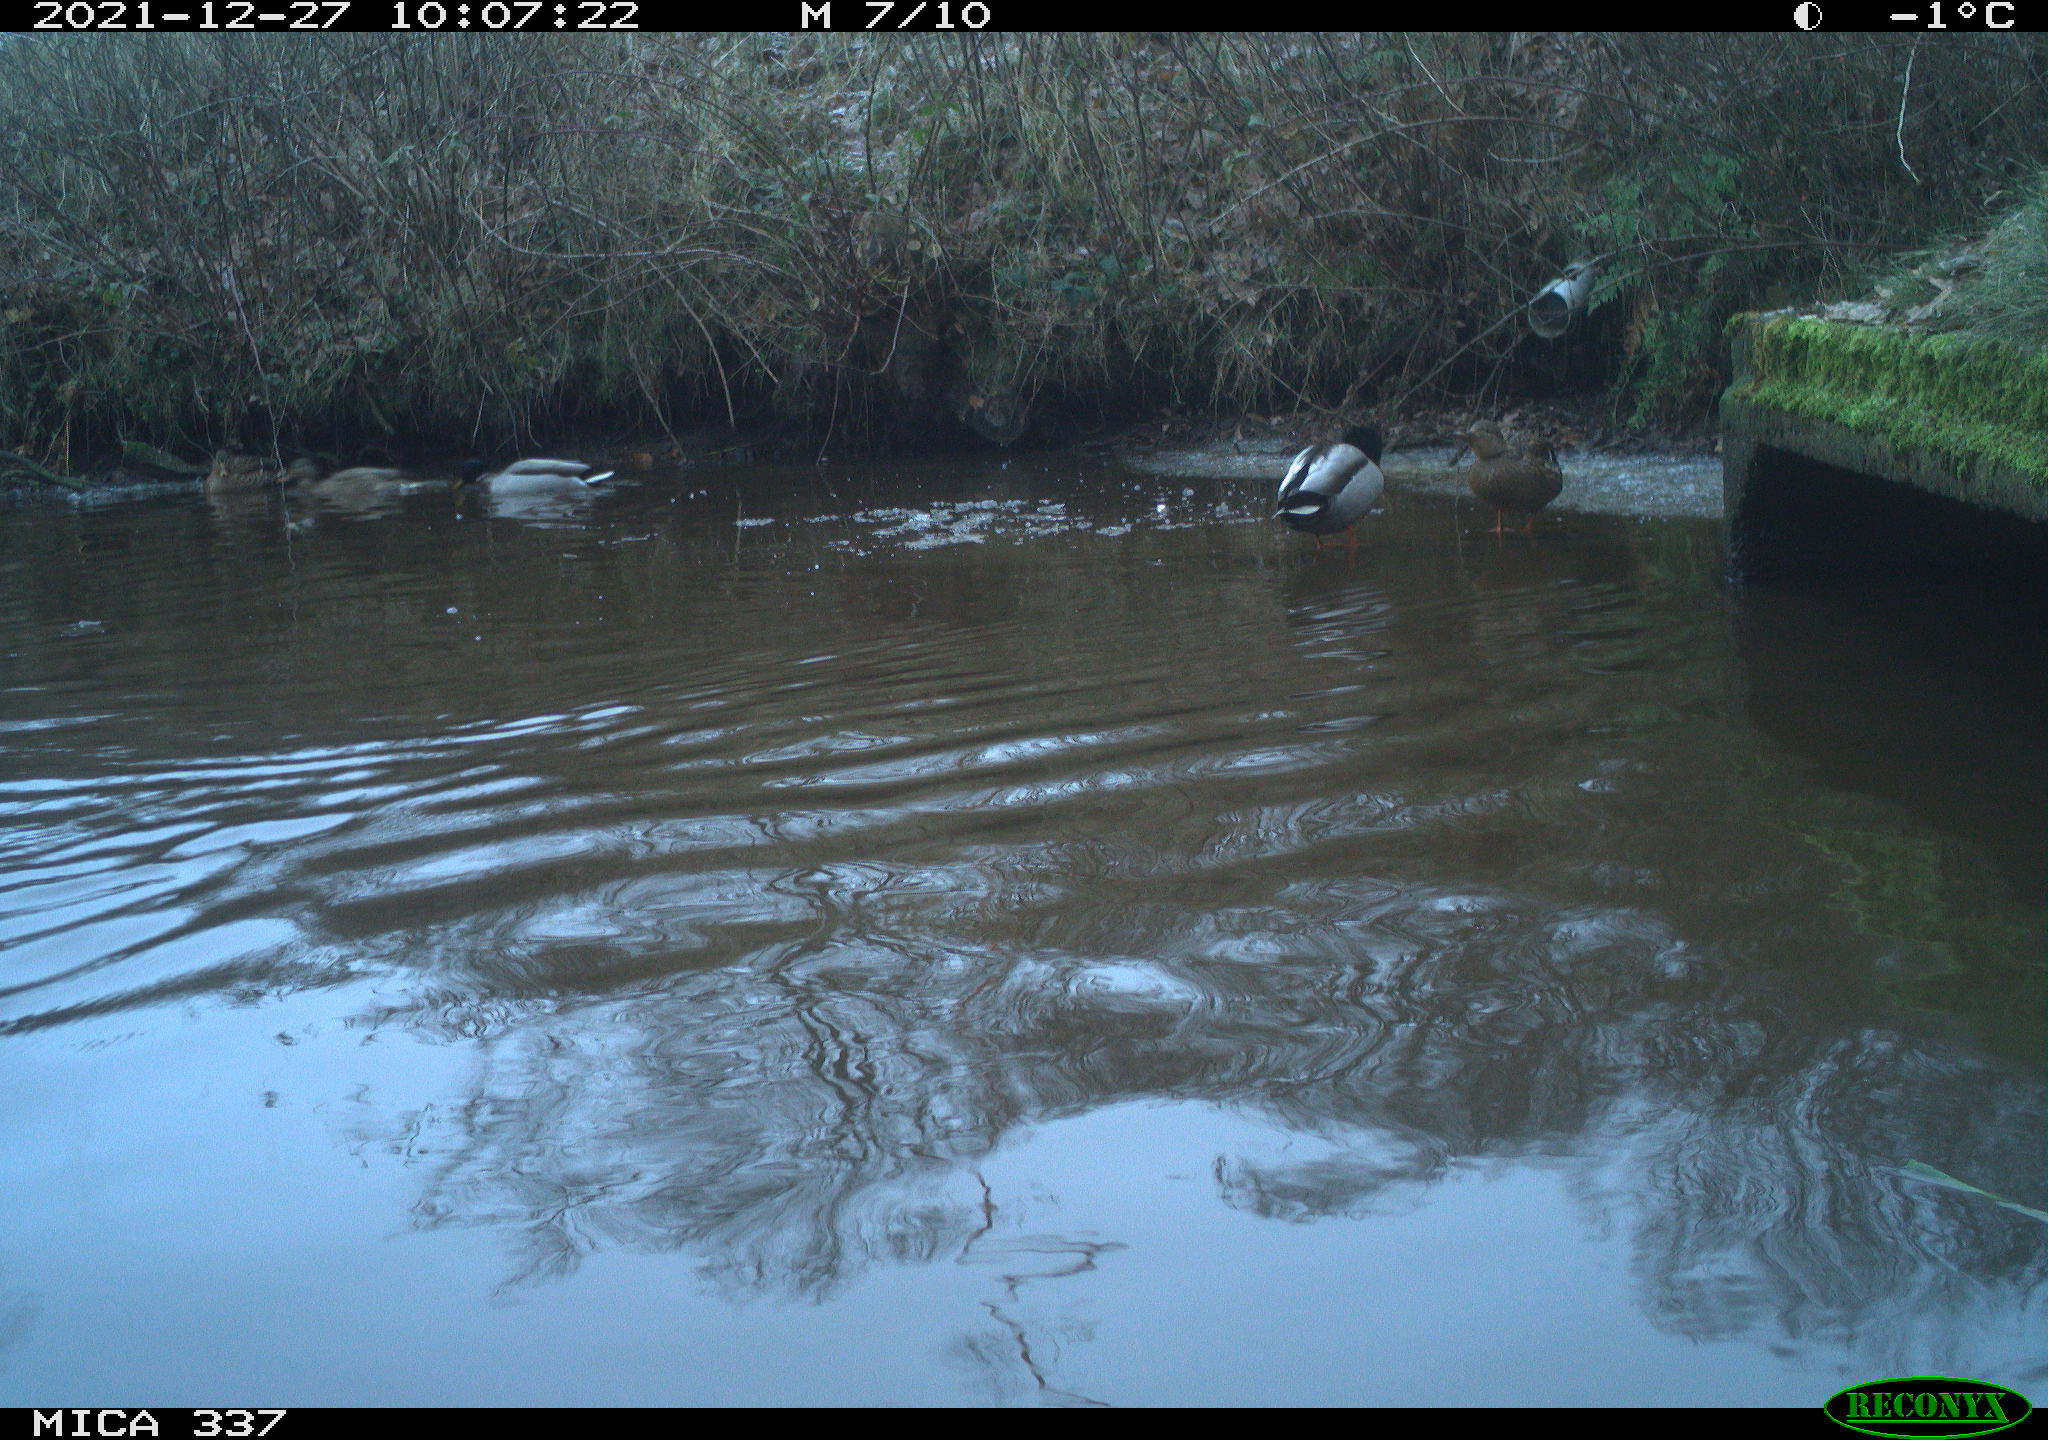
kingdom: Animalia
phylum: Chordata
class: Aves
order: Anseriformes
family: Anatidae
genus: Anas
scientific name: Anas platyrhynchos
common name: Mallard
